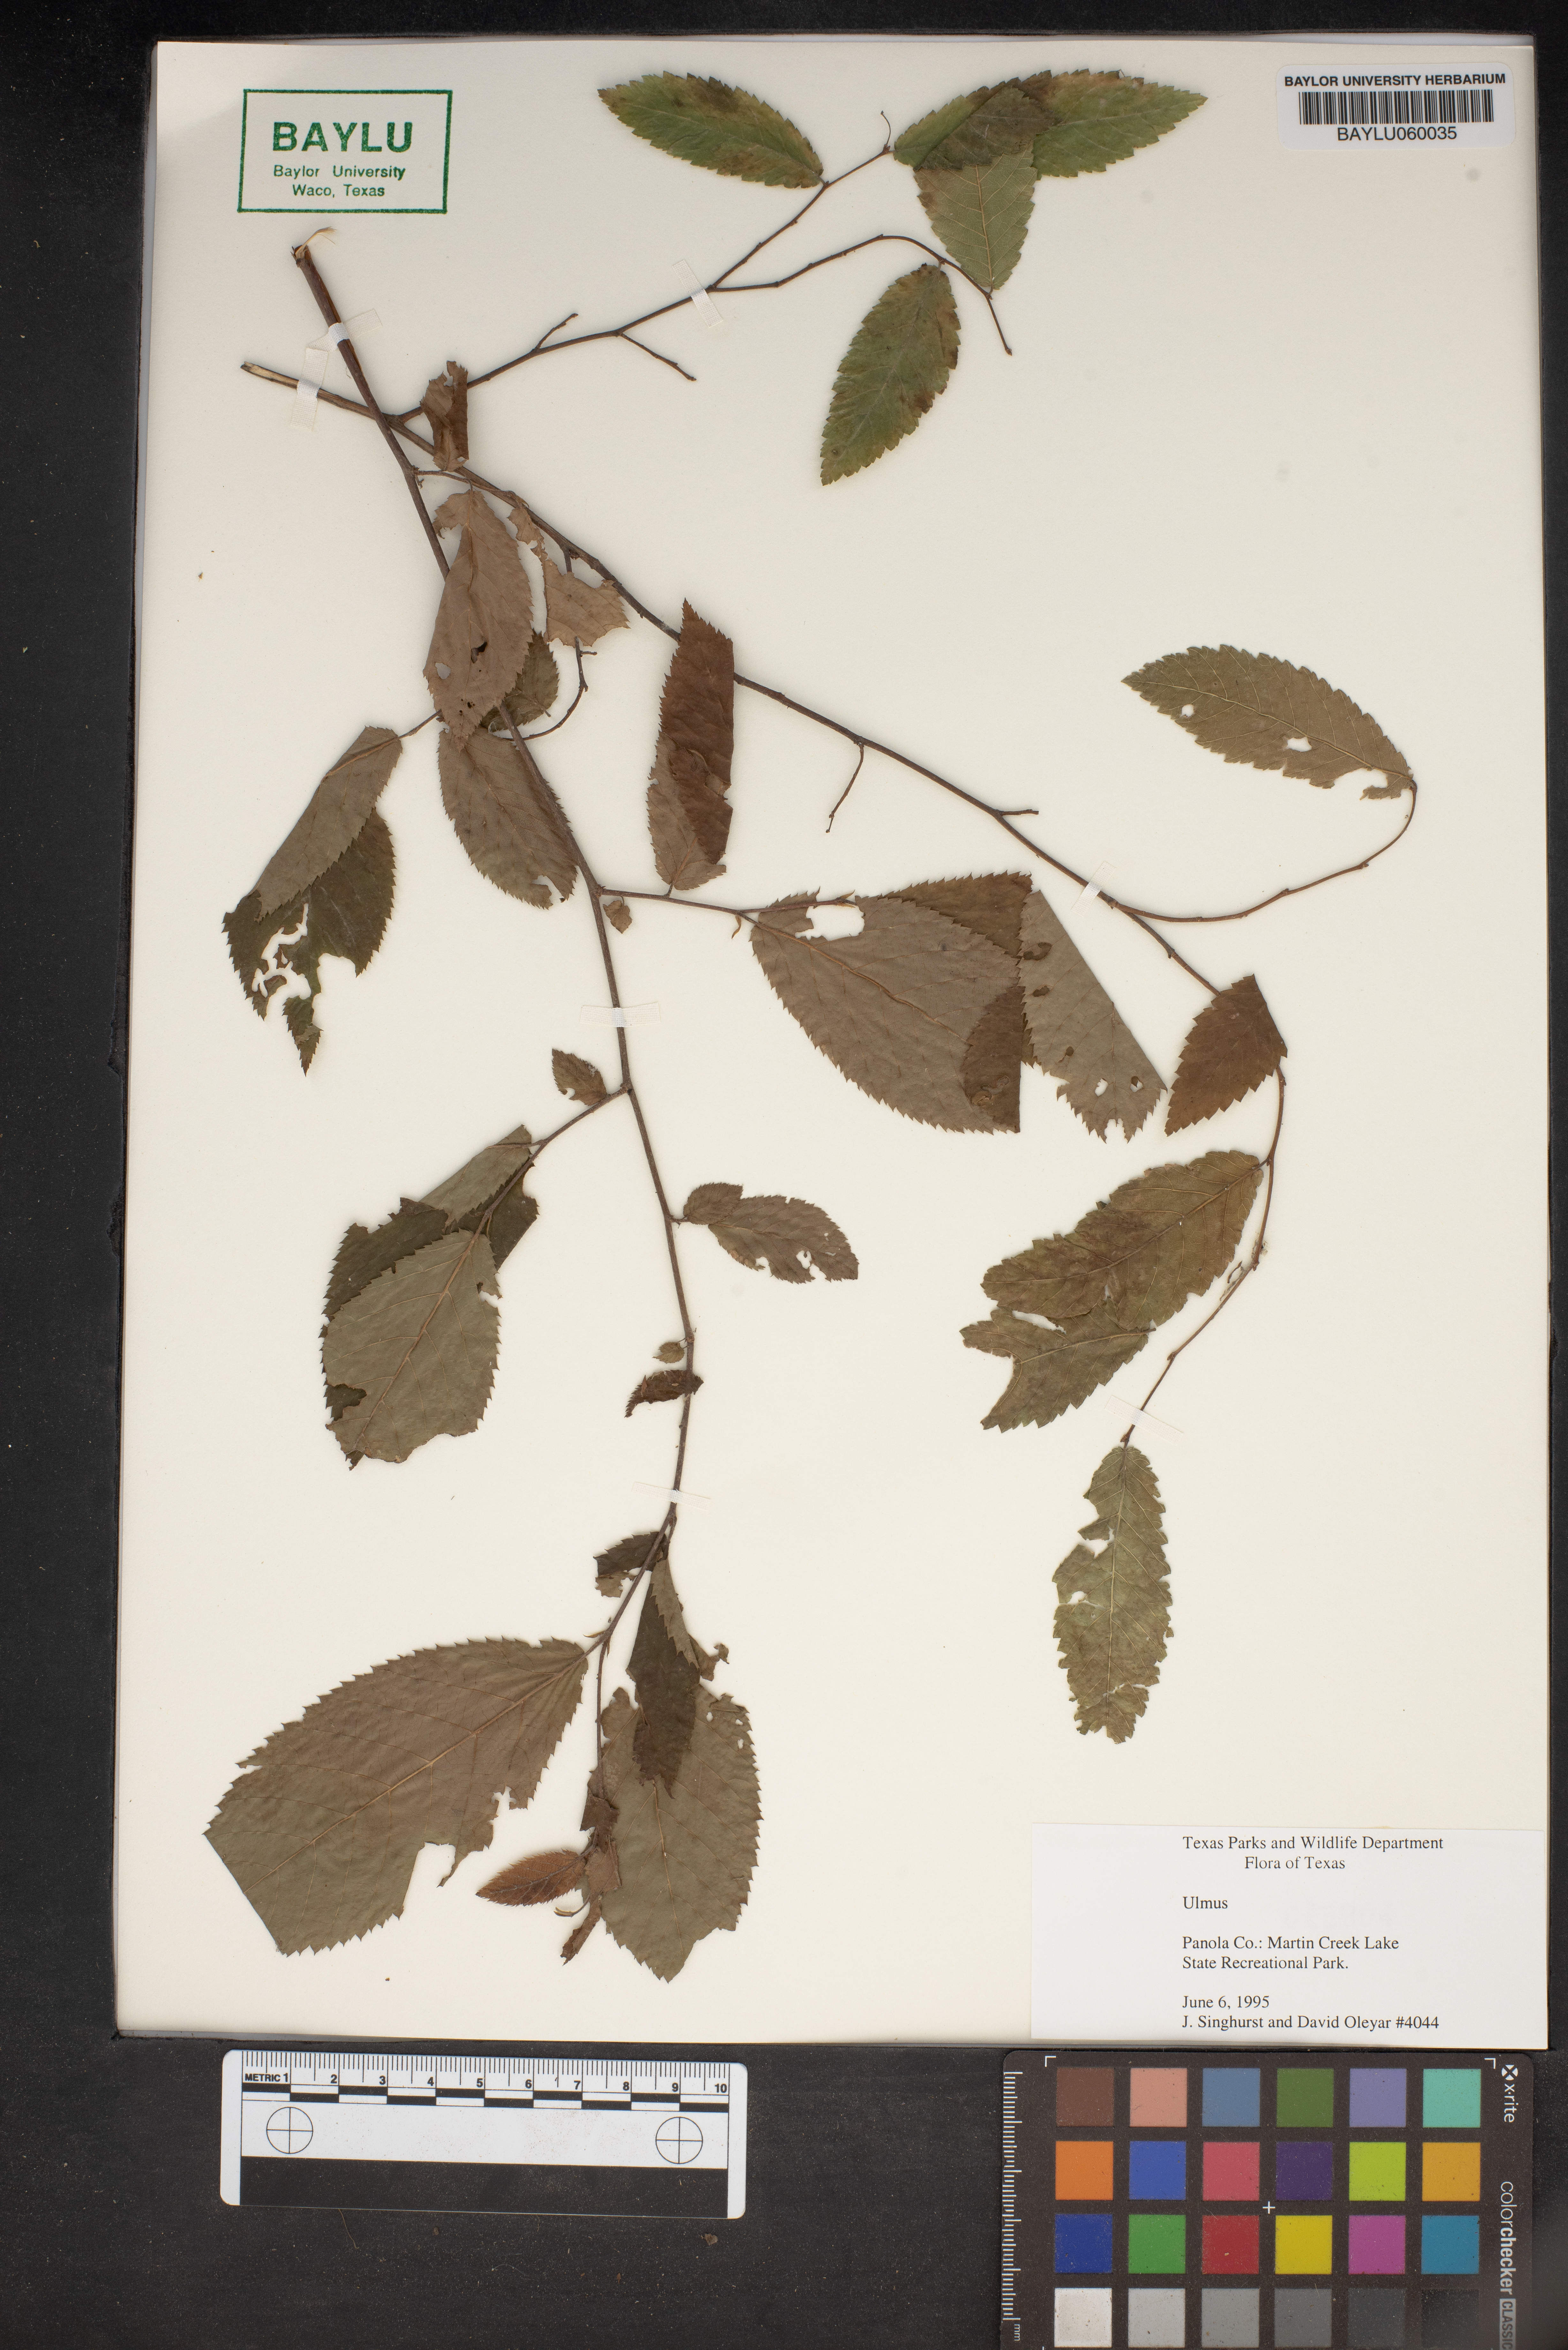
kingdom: Plantae
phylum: Tracheophyta
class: Magnoliopsida
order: Rosales
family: Ulmaceae
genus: Ulmus
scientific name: Ulmus
